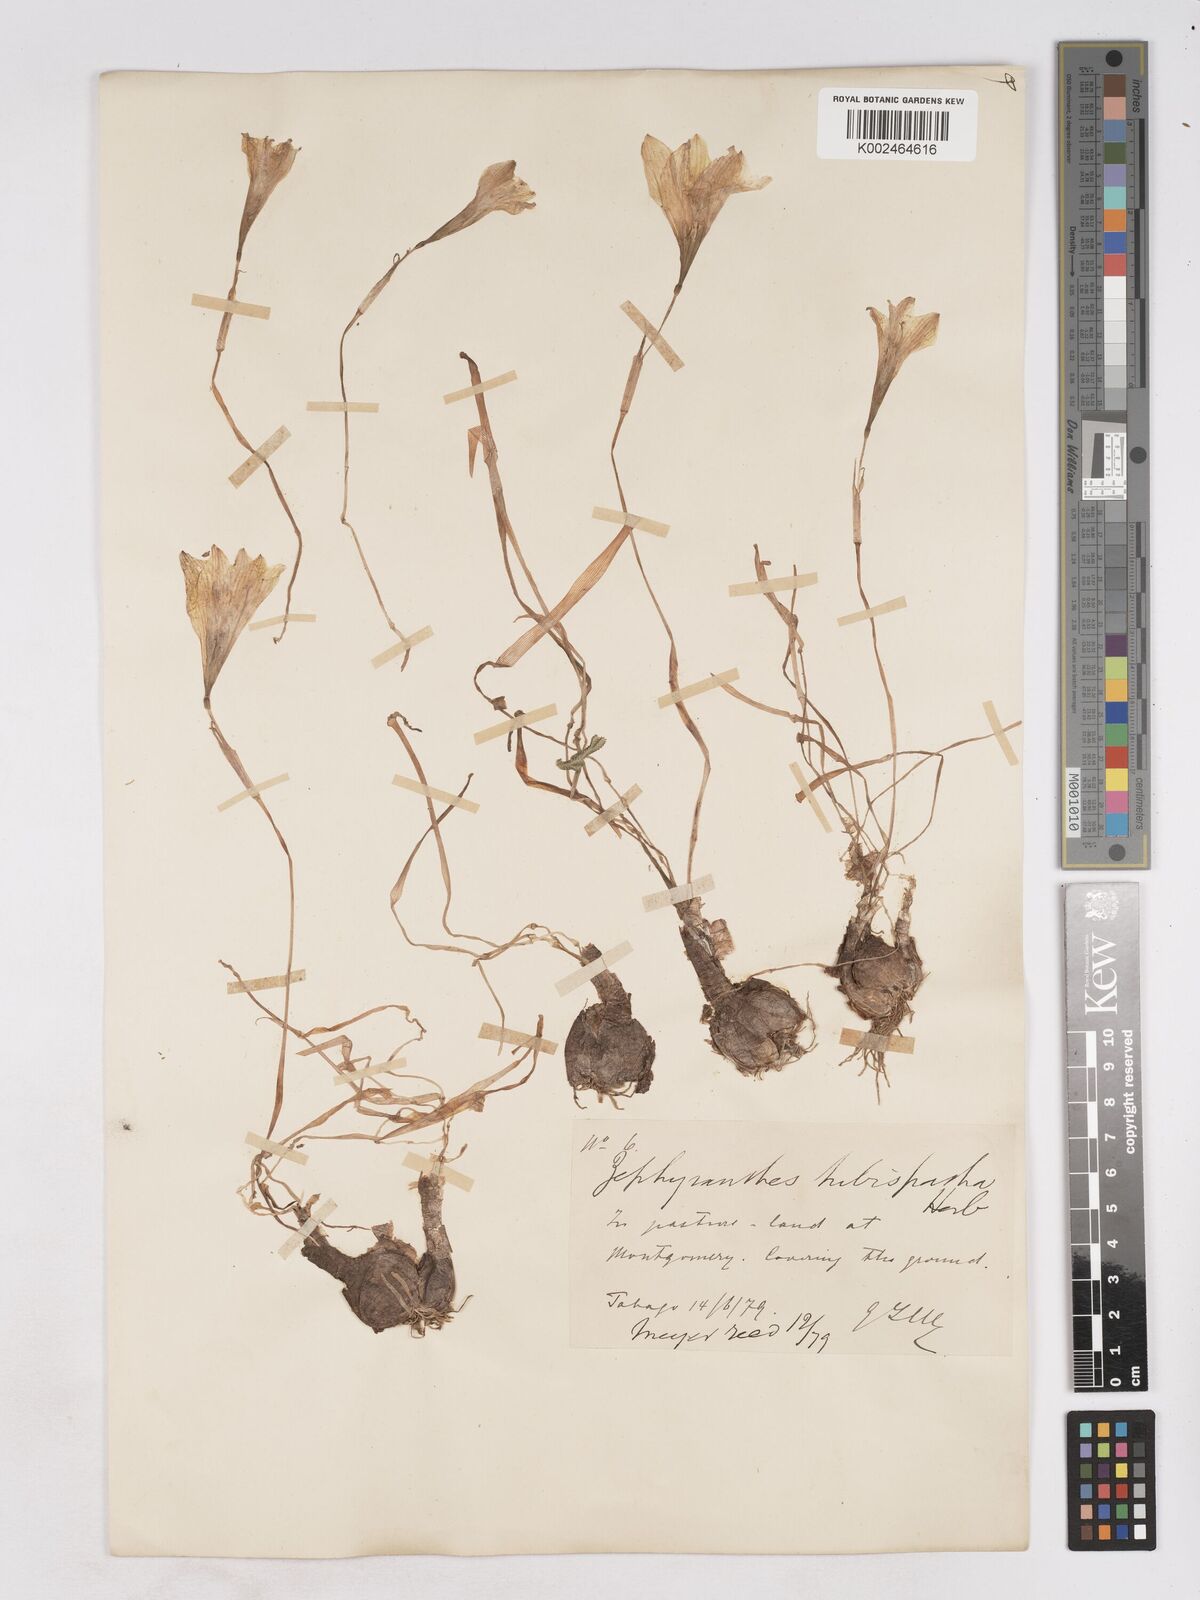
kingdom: Plantae
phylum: Tracheophyta
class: Liliopsida
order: Asparagales
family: Amaryllidaceae
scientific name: Amaryllidaceae
